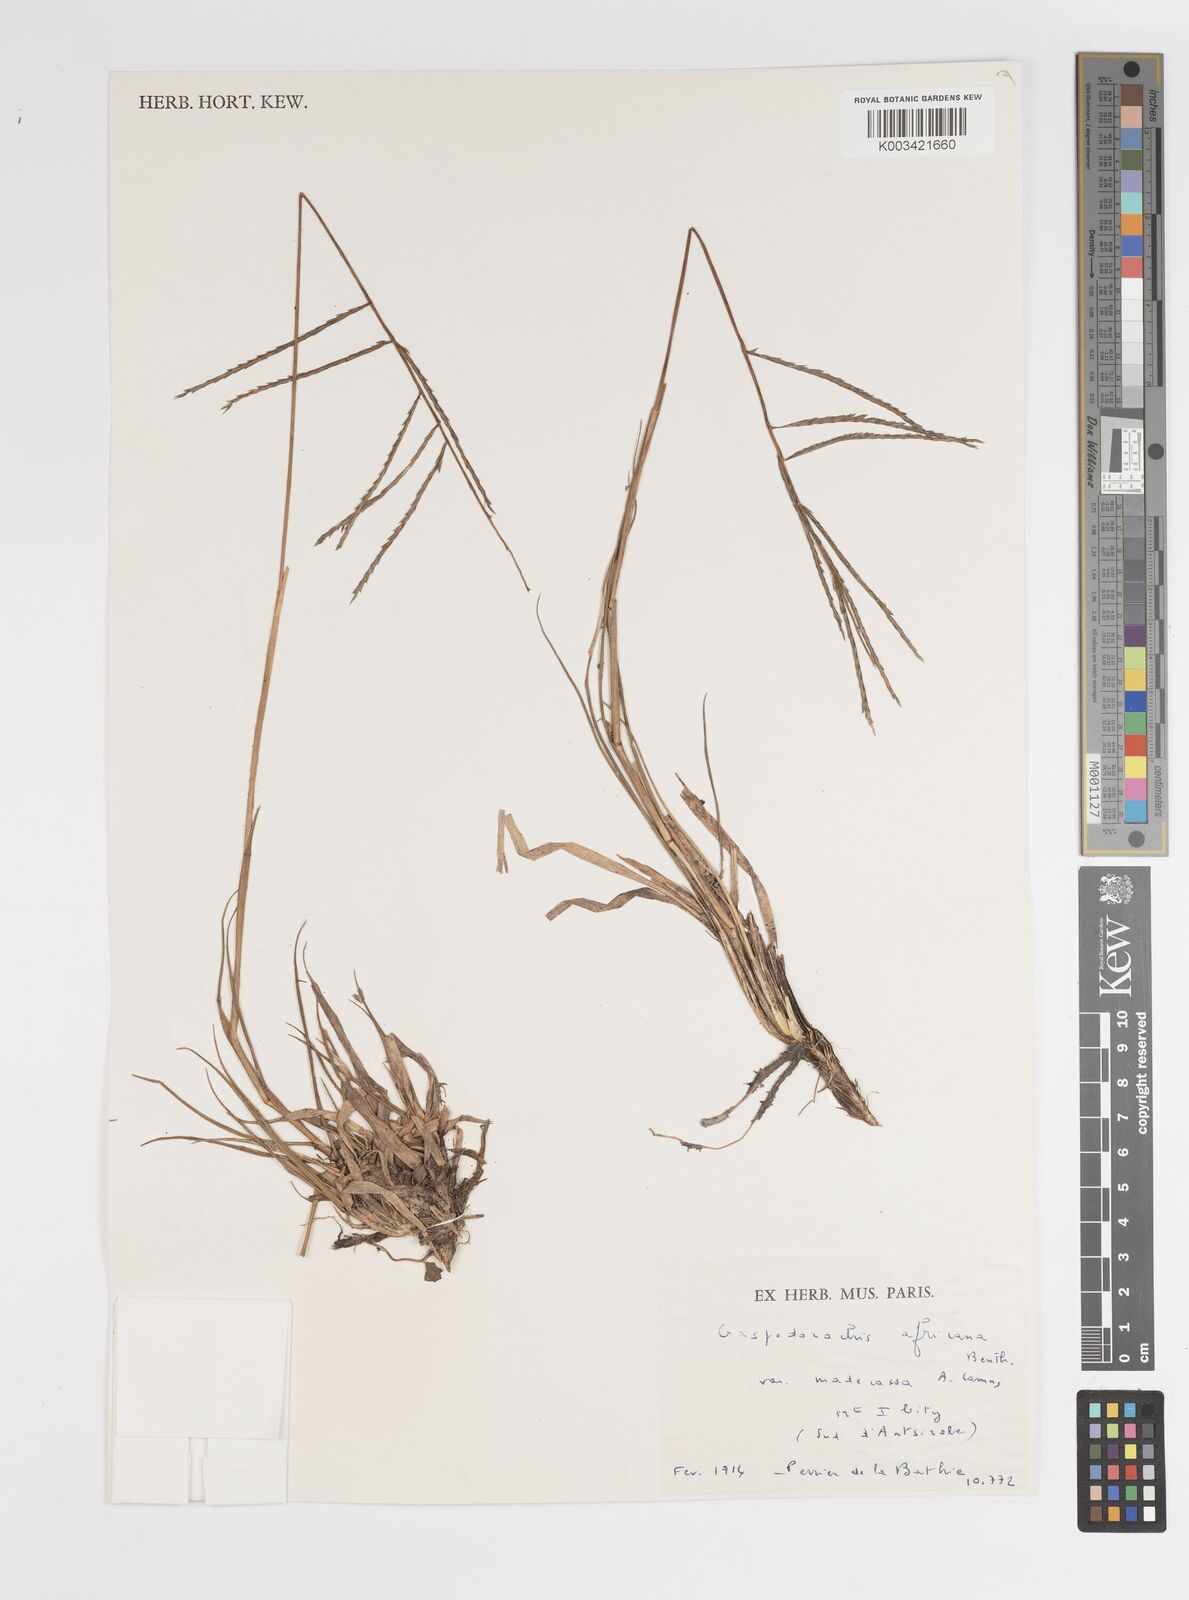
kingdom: Plantae
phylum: Tracheophyta
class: Liliopsida
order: Poales
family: Poaceae
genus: Craspedorhachis
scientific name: Craspedorhachis africana
